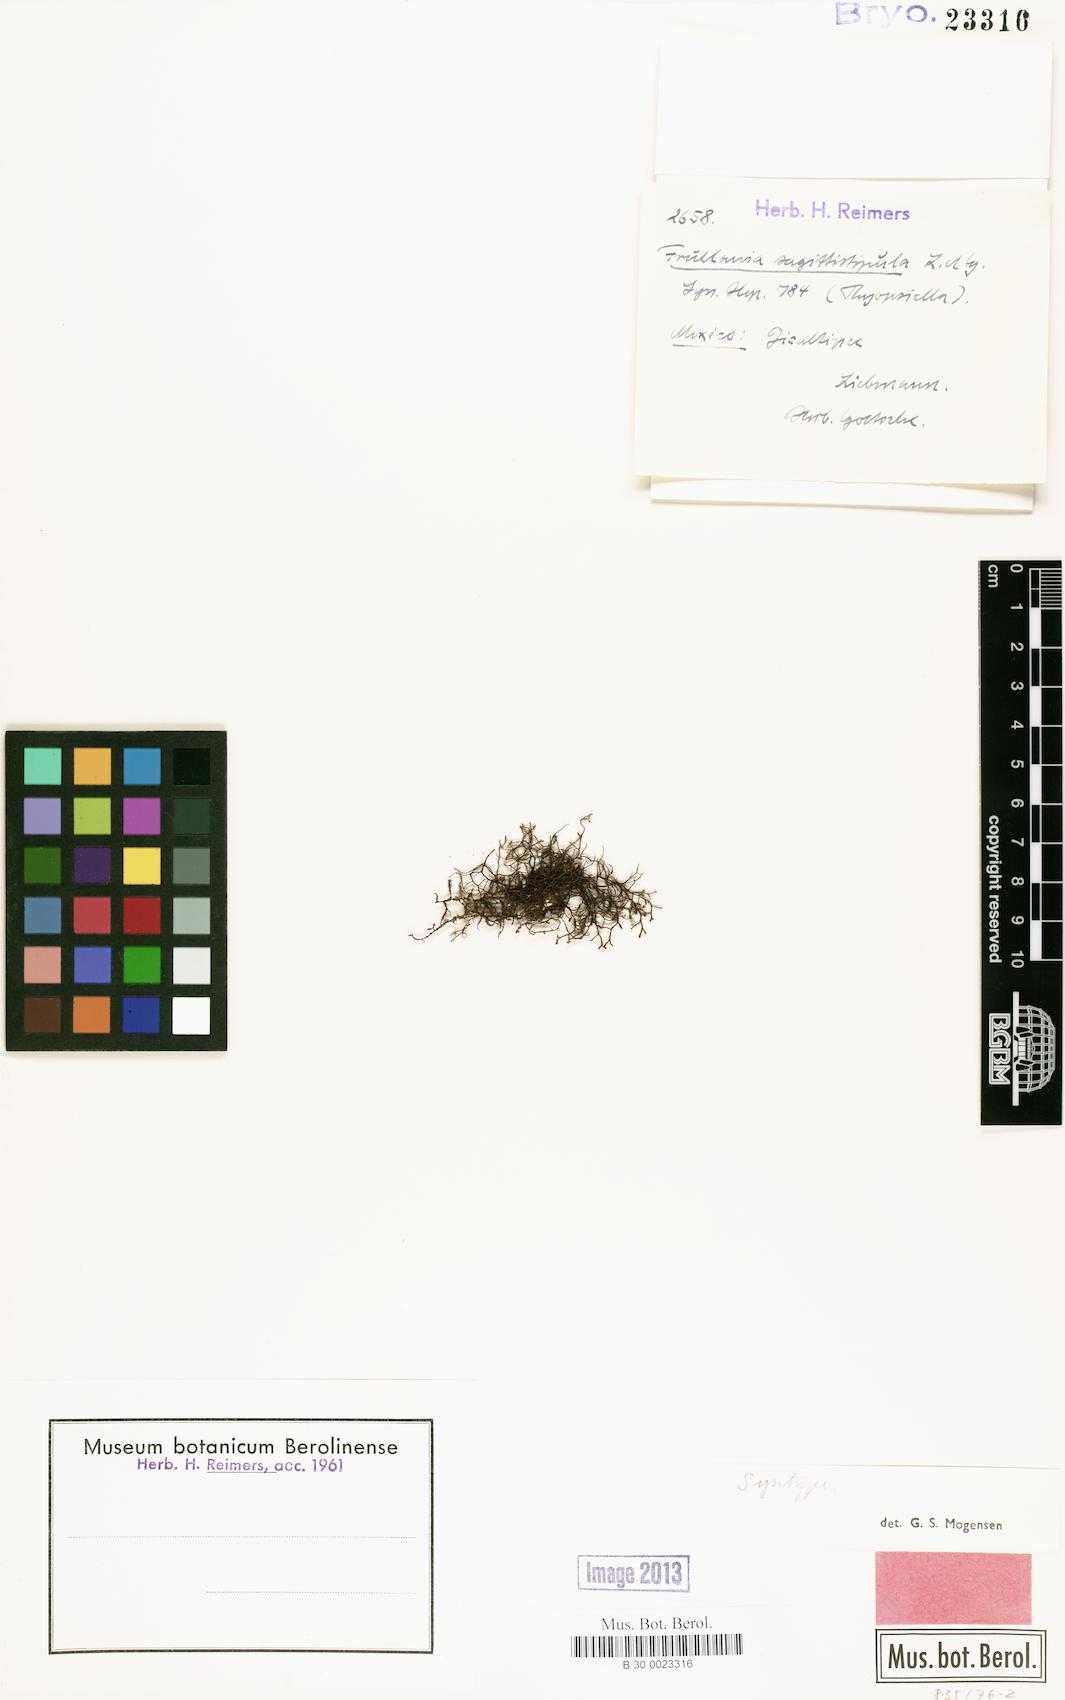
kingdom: Plantae
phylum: Marchantiophyta
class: Jungermanniopsida
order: Porellales
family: Frullaniaceae
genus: Frullania
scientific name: Frullania breuteliana
